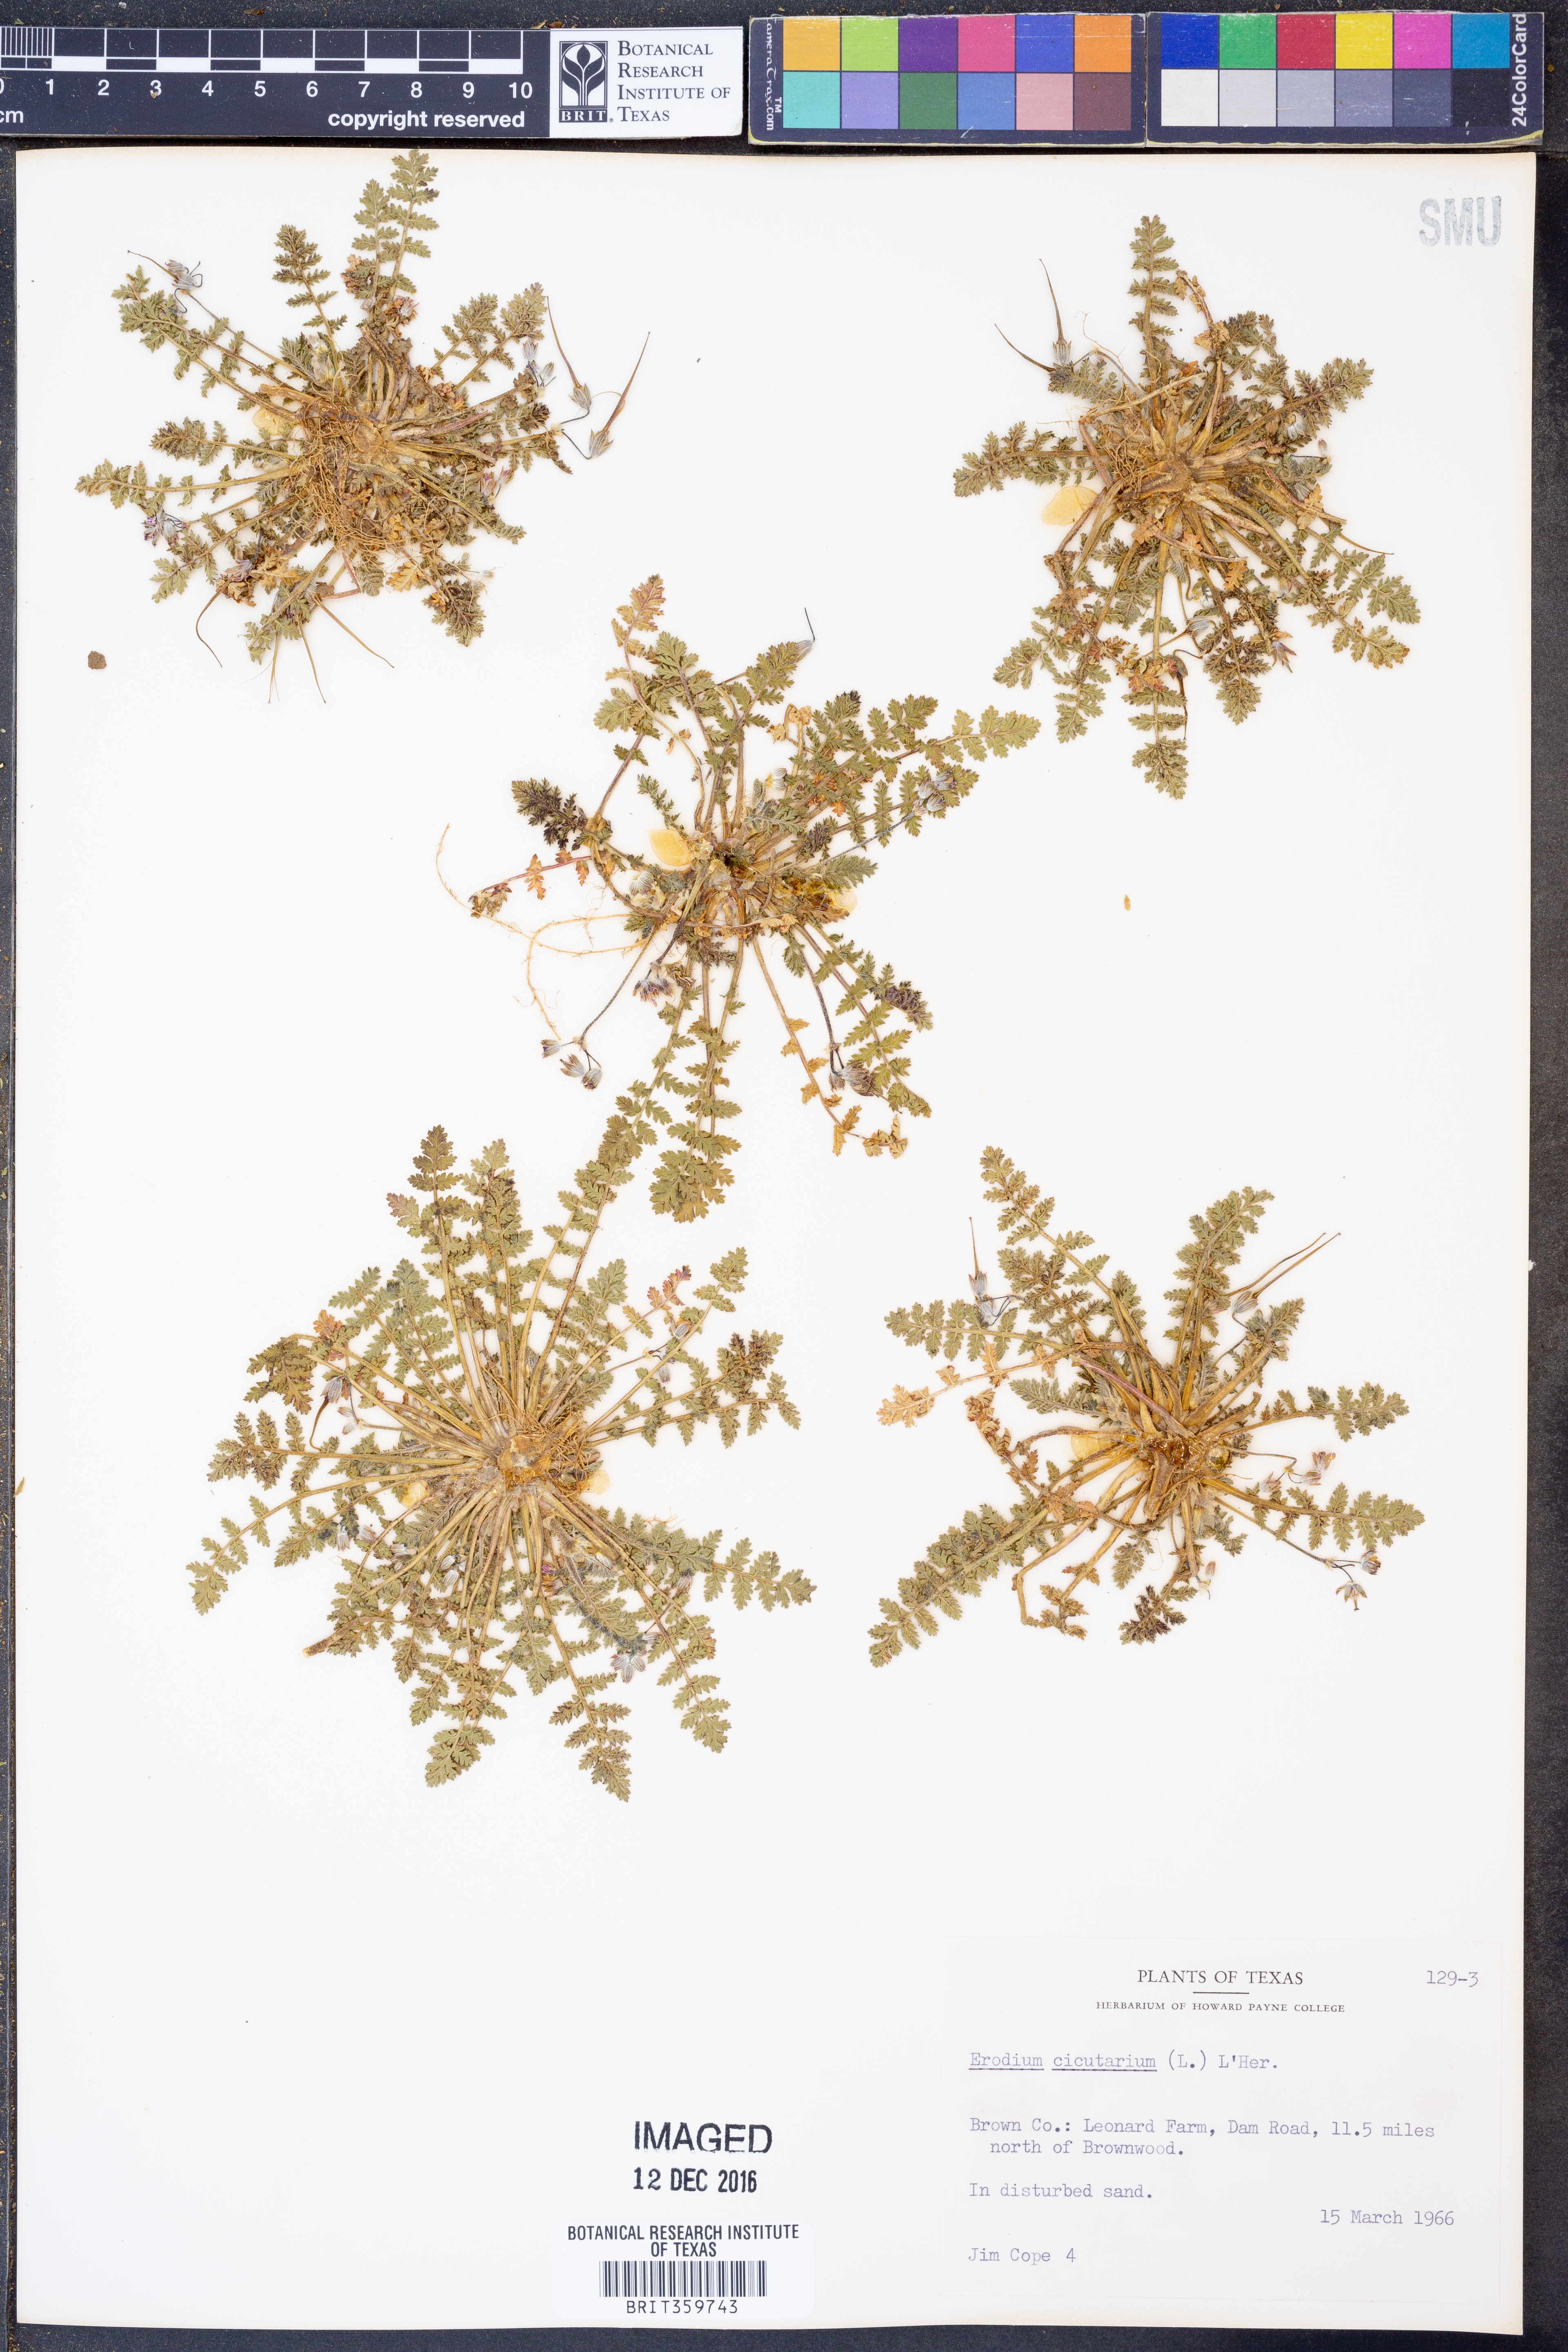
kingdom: Plantae
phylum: Tracheophyta
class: Magnoliopsida
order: Geraniales
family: Geraniaceae
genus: Erodium
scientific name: Erodium cicutarium
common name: Common stork's-bill
